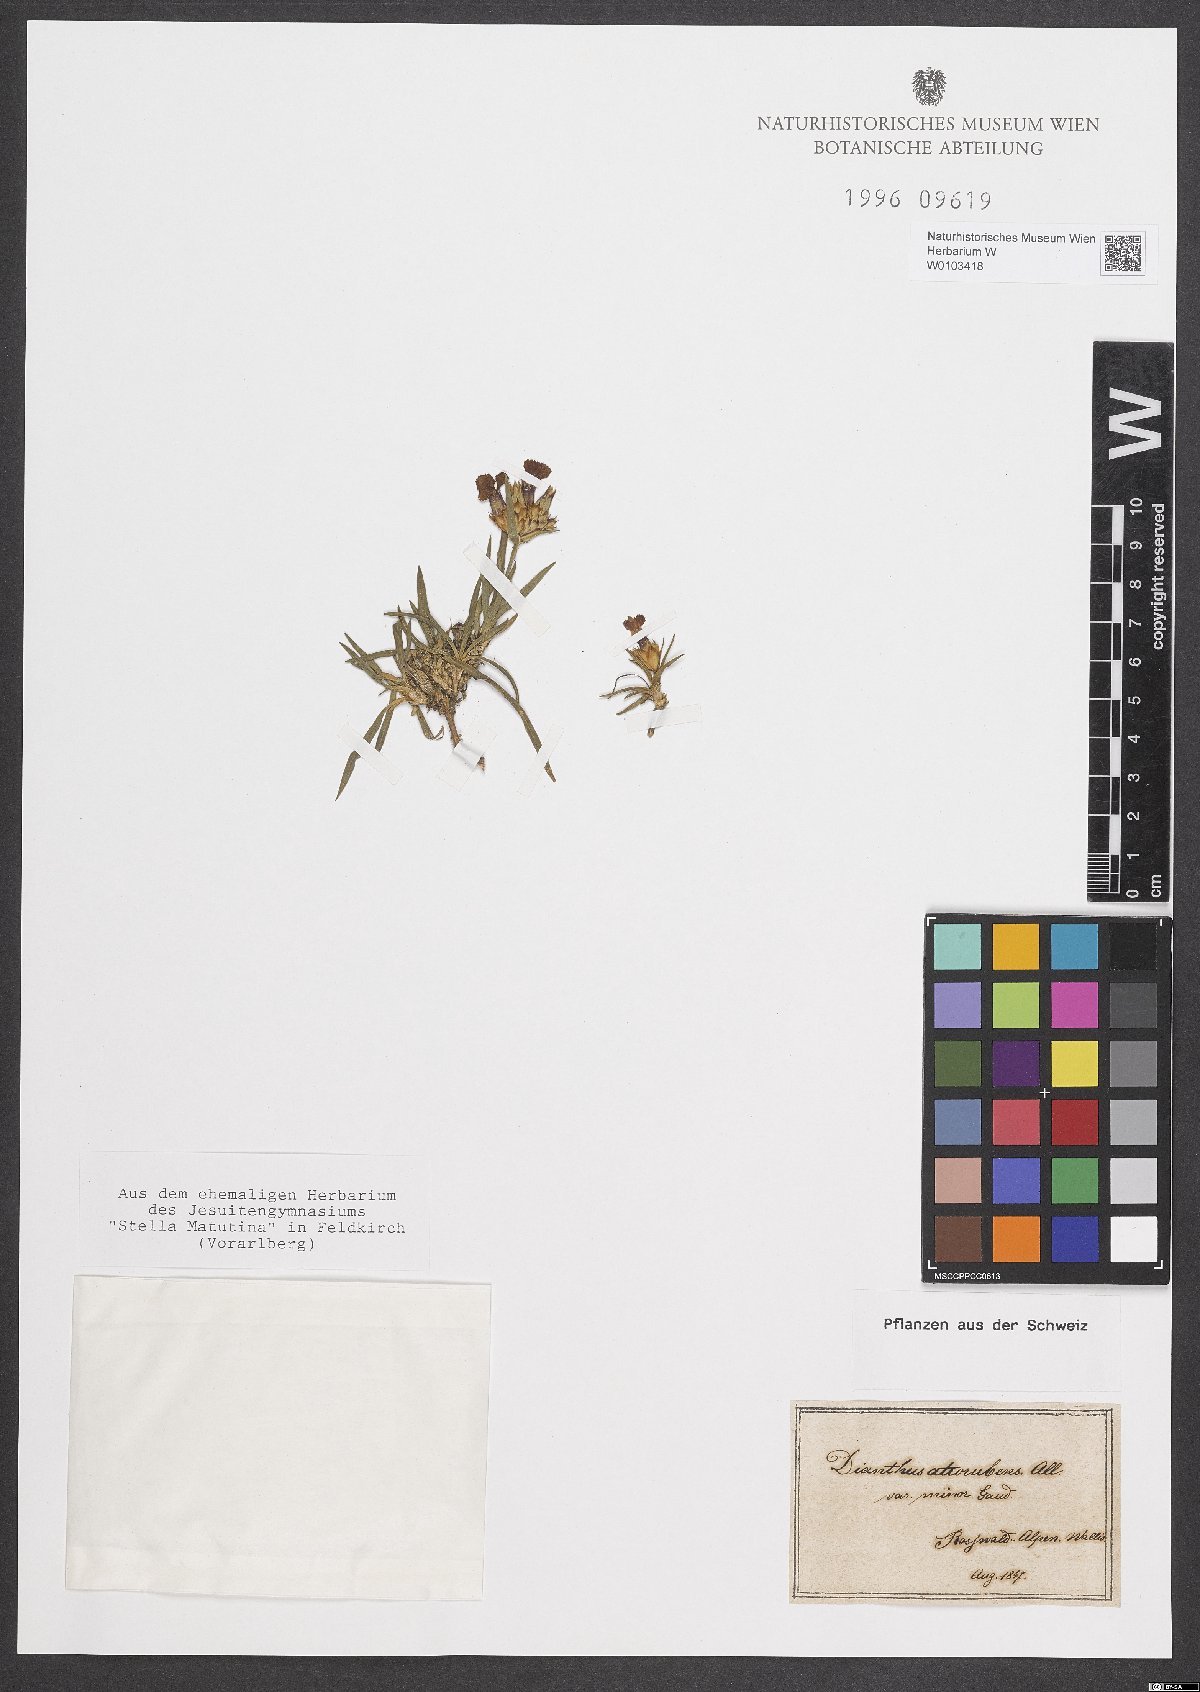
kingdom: Plantae
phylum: Tracheophyta
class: Magnoliopsida
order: Caryophyllales
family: Caryophyllaceae
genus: Dianthus
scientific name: Dianthus carthusianorum
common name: Carthusian pink
